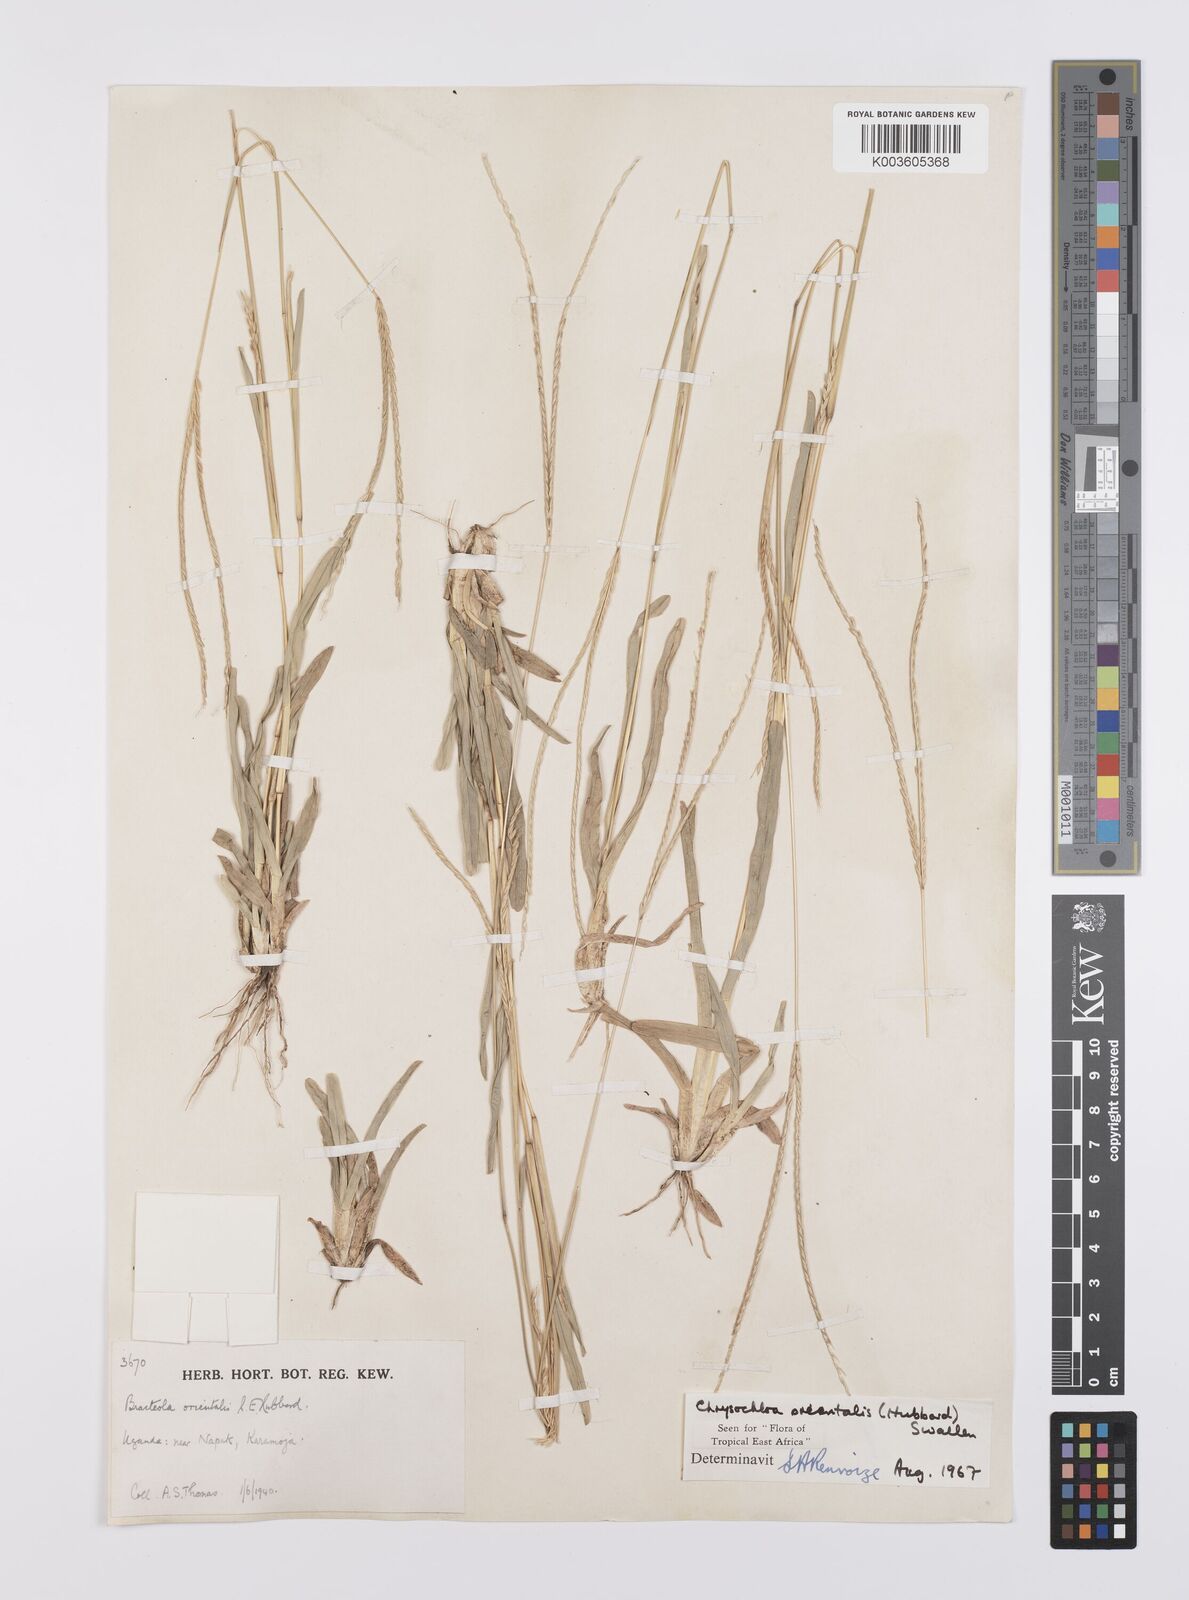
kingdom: Plantae
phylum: Tracheophyta
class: Liliopsida
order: Poales
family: Poaceae
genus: Chrysochloa
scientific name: Chrysochloa orientalis
